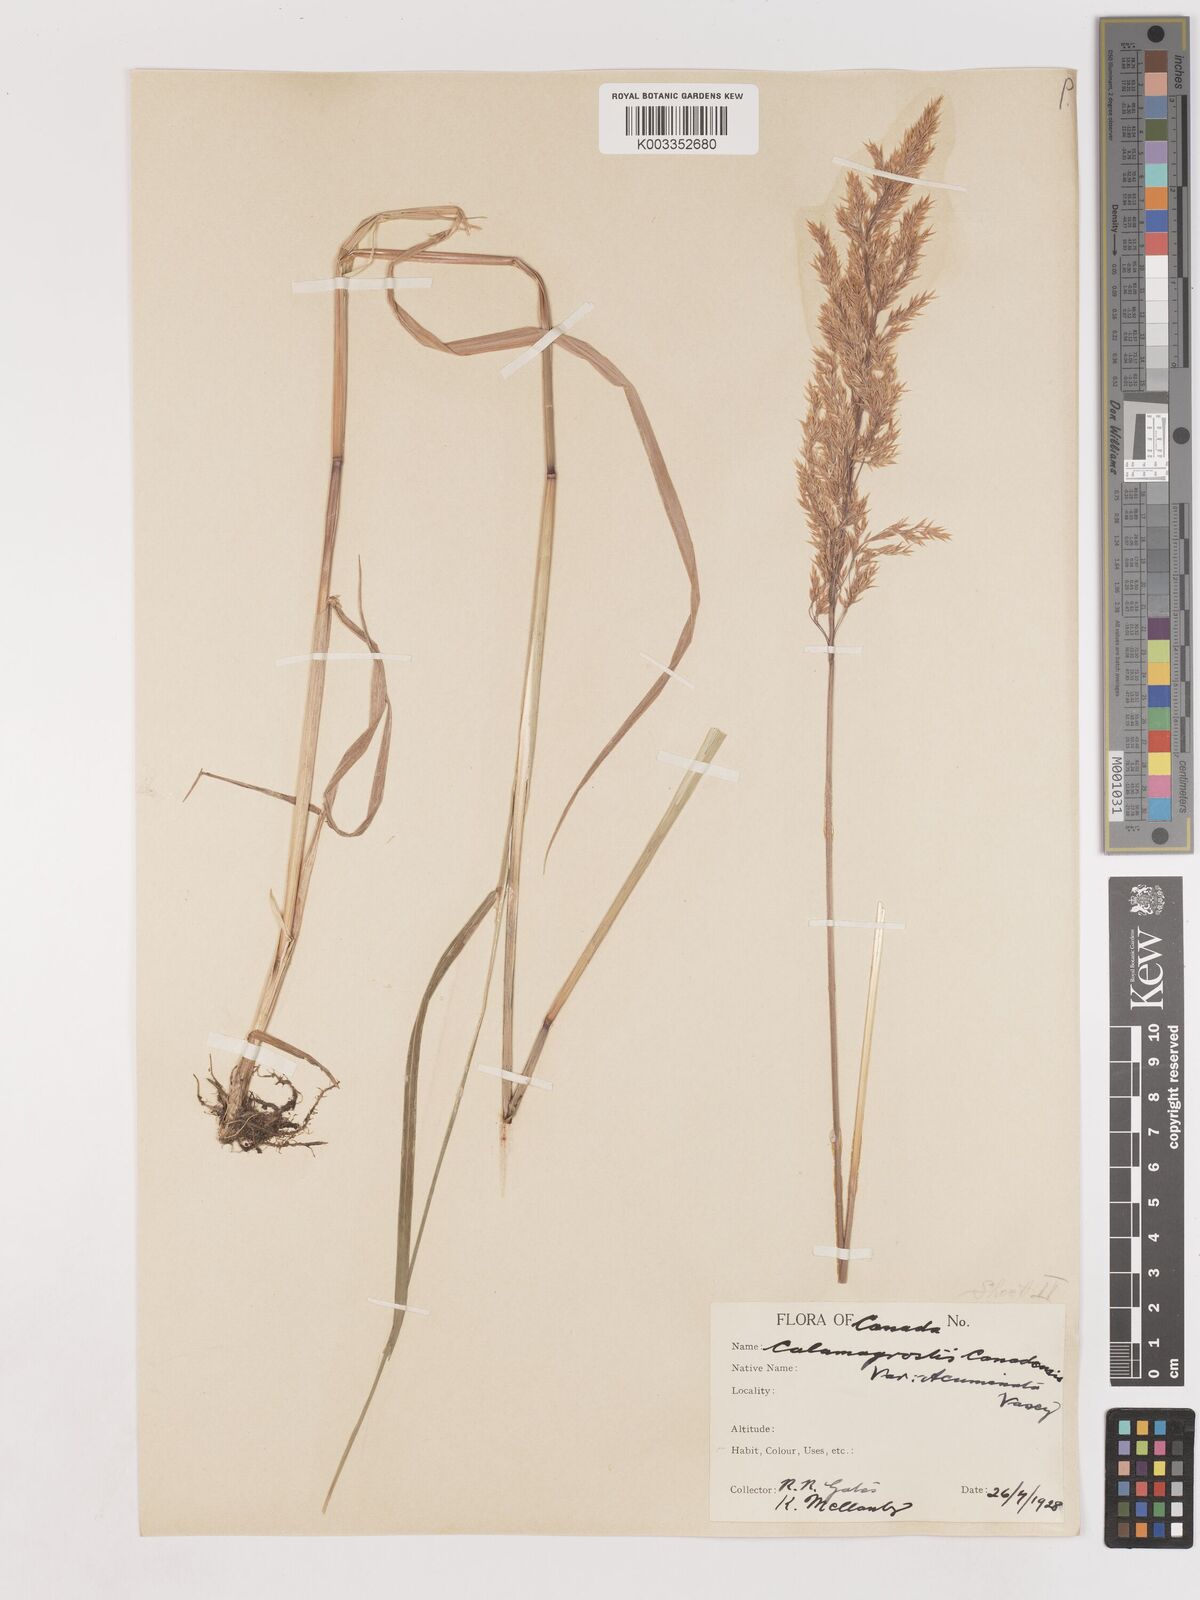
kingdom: Plantae
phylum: Tracheophyta
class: Liliopsida
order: Poales
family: Poaceae
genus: Calamagrostis
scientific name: Calamagrostis canadensis
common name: Canada bluejoint
